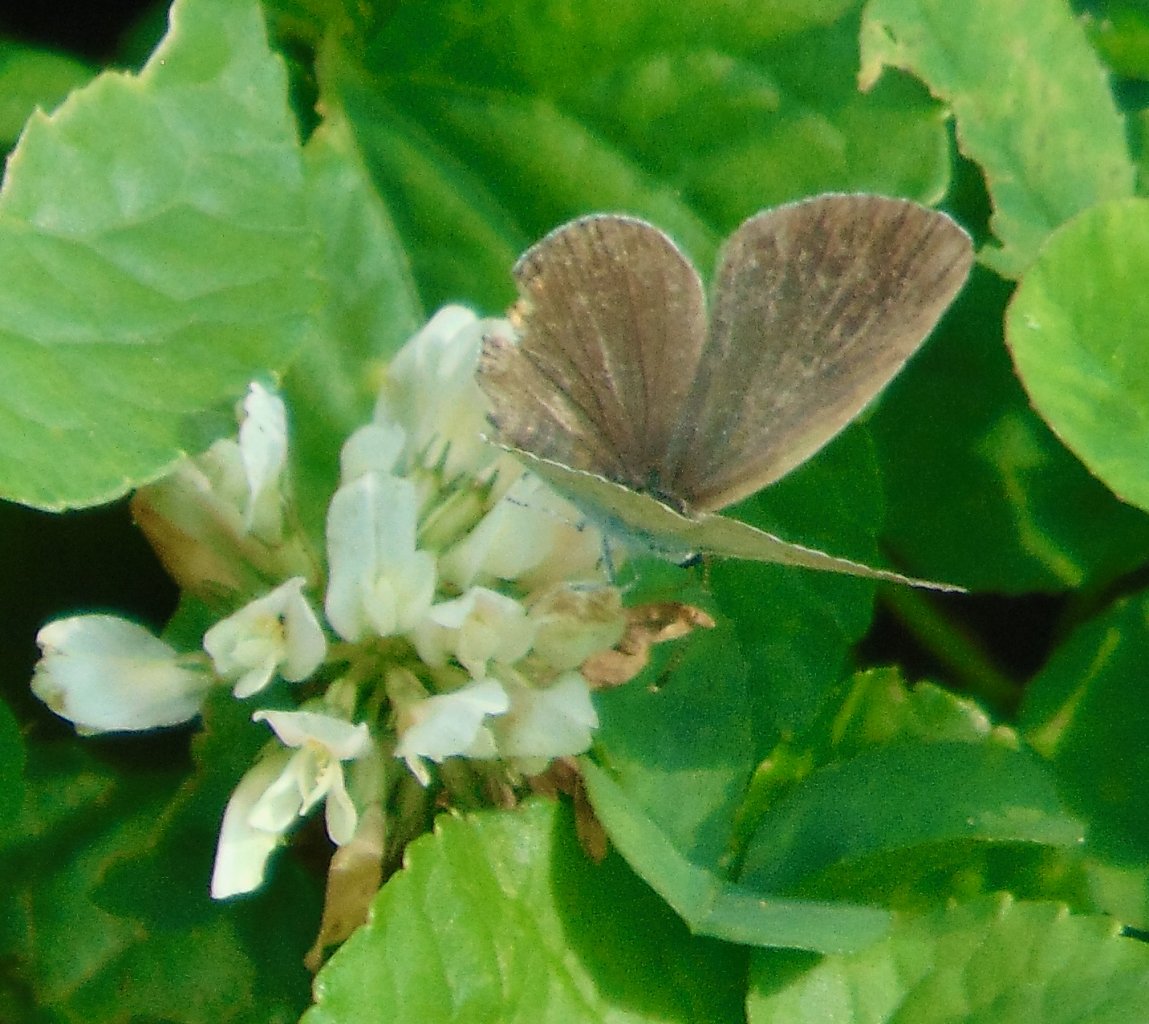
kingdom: Animalia
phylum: Arthropoda
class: Insecta
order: Lepidoptera
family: Lycaenidae
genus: Elkalyce
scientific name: Elkalyce comyntas
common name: Eastern Tailed-Blue
